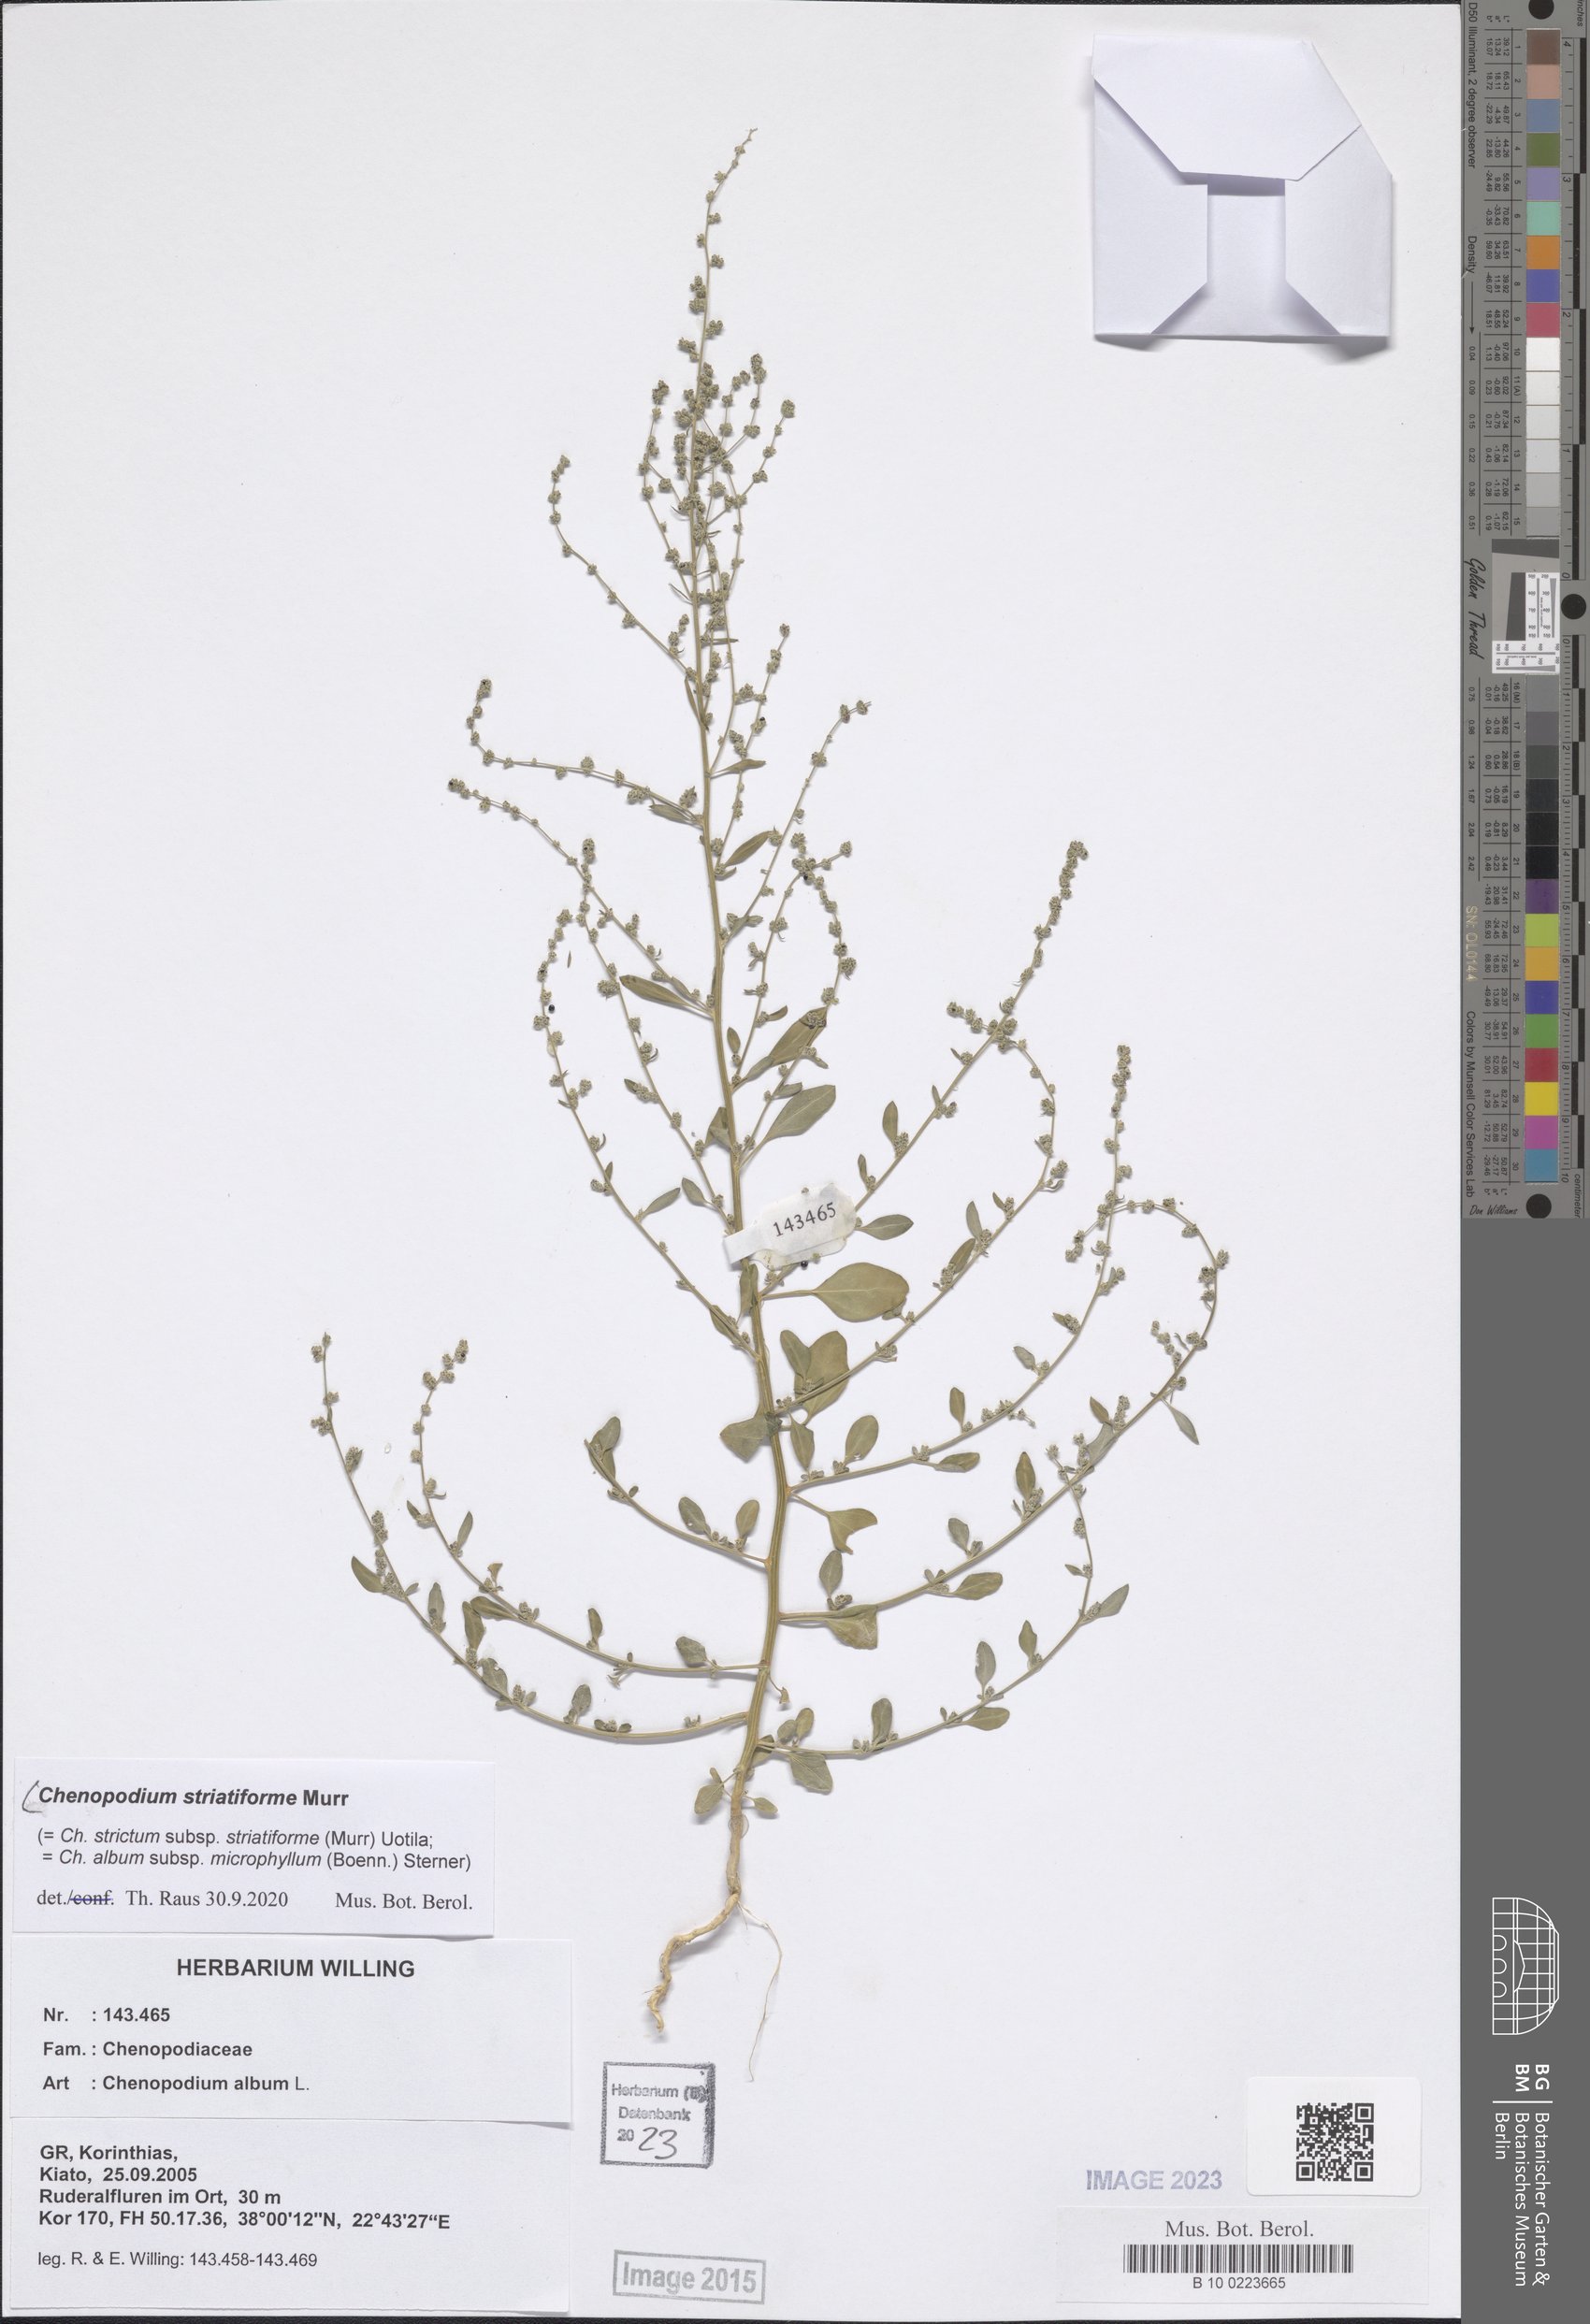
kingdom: Plantae
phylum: Tracheophyta
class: Magnoliopsida
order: Caryophyllales
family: Amaranthaceae
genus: Chenopodium
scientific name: Chenopodium striatiforme
